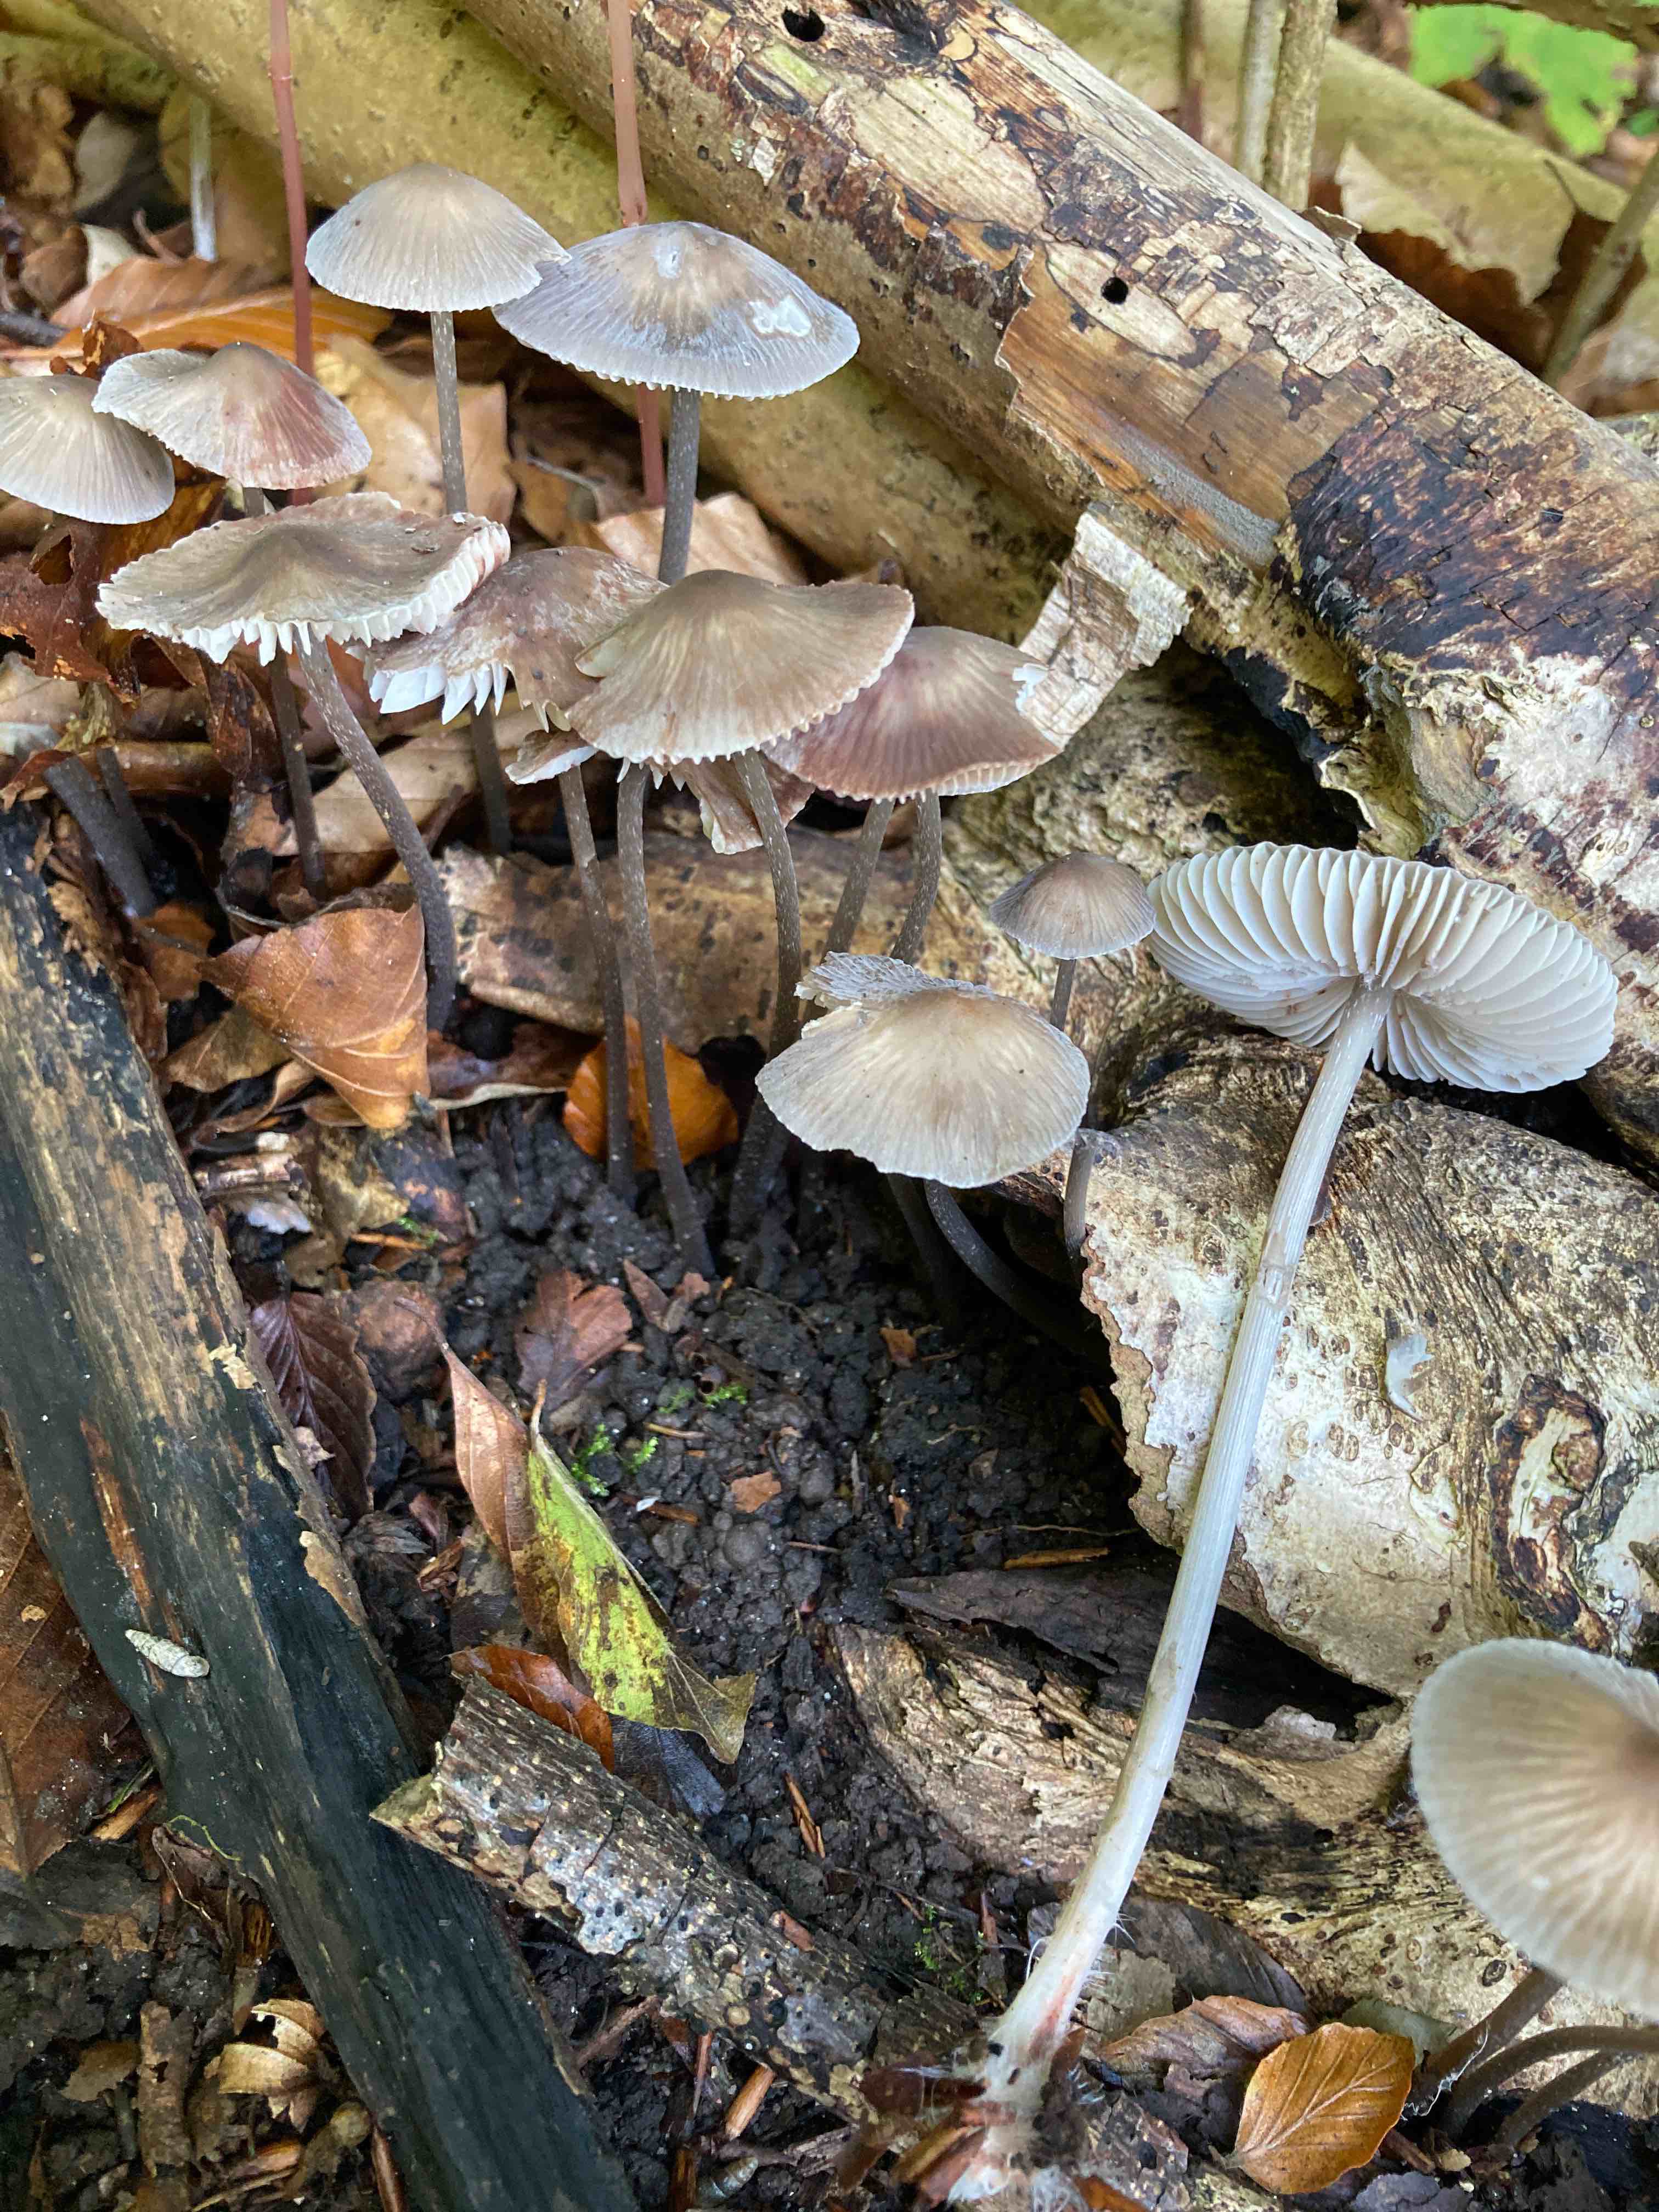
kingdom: Fungi
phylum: Basidiomycota
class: Agaricomycetes
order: Agaricales
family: Mycenaceae
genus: Mycena
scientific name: Mycena polygramma
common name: mangestribet huesvamp
